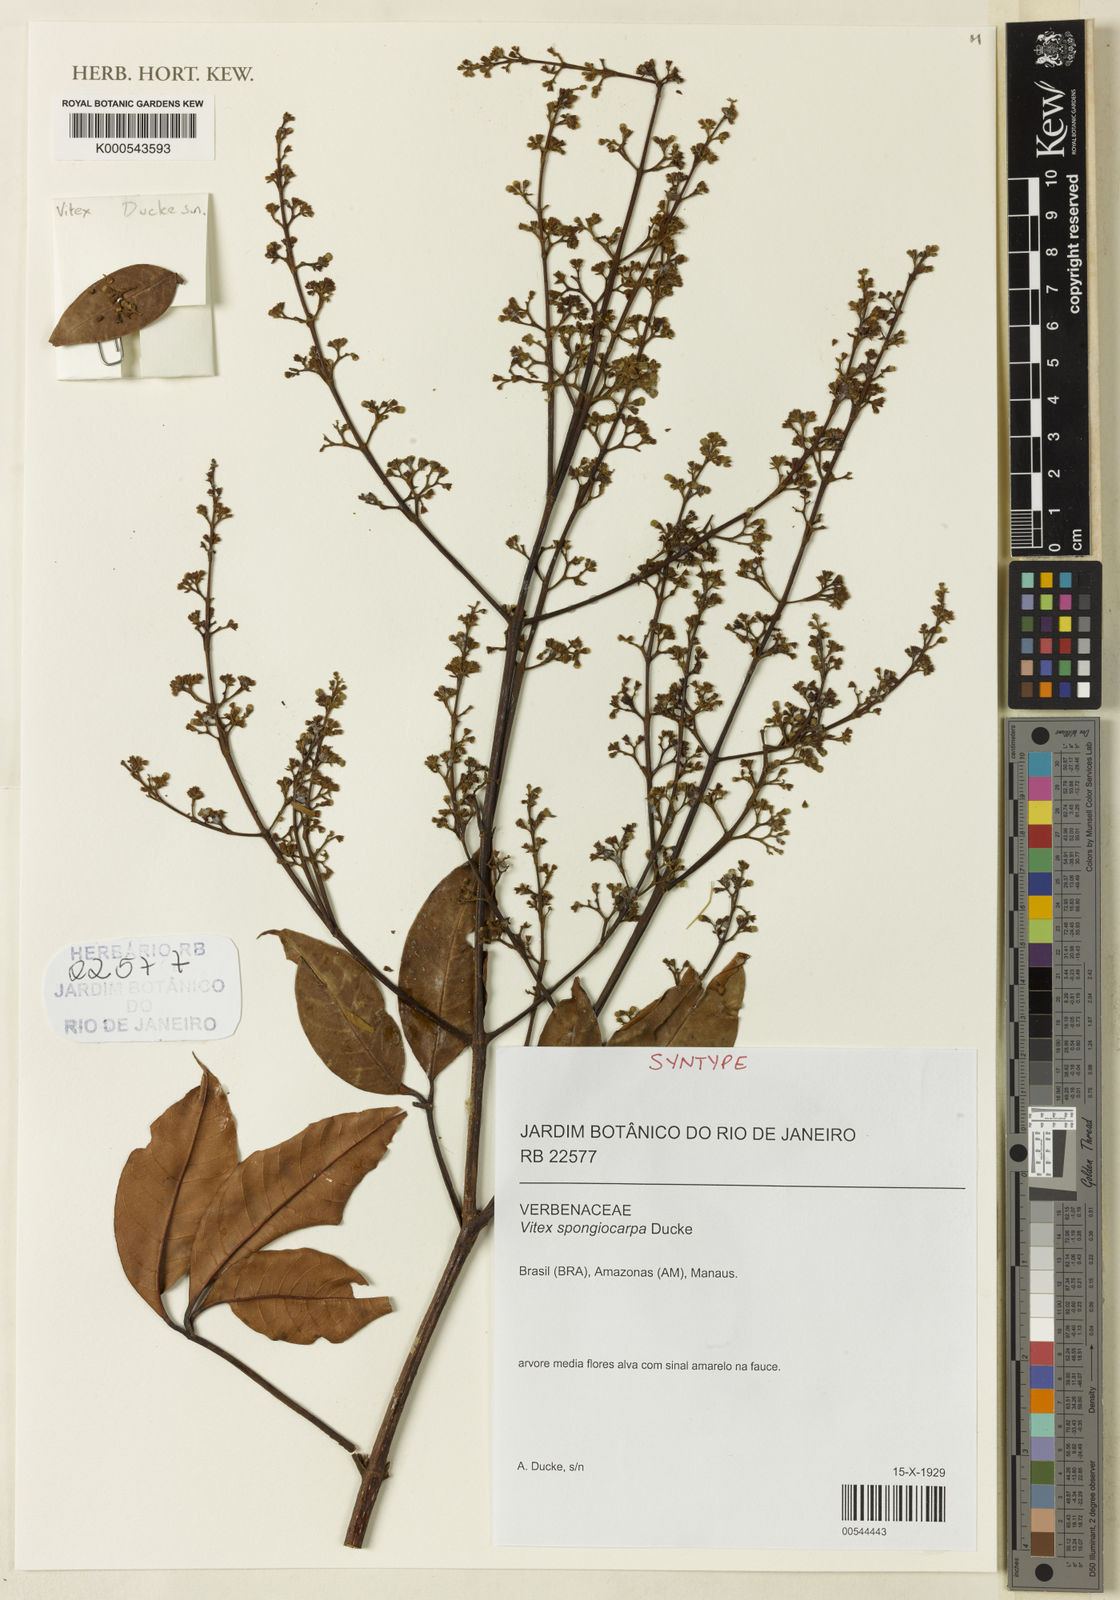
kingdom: Plantae
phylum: Tracheophyta
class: Magnoliopsida
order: Lamiales
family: Lamiaceae
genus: Vitex
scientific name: Vitex sprucei
